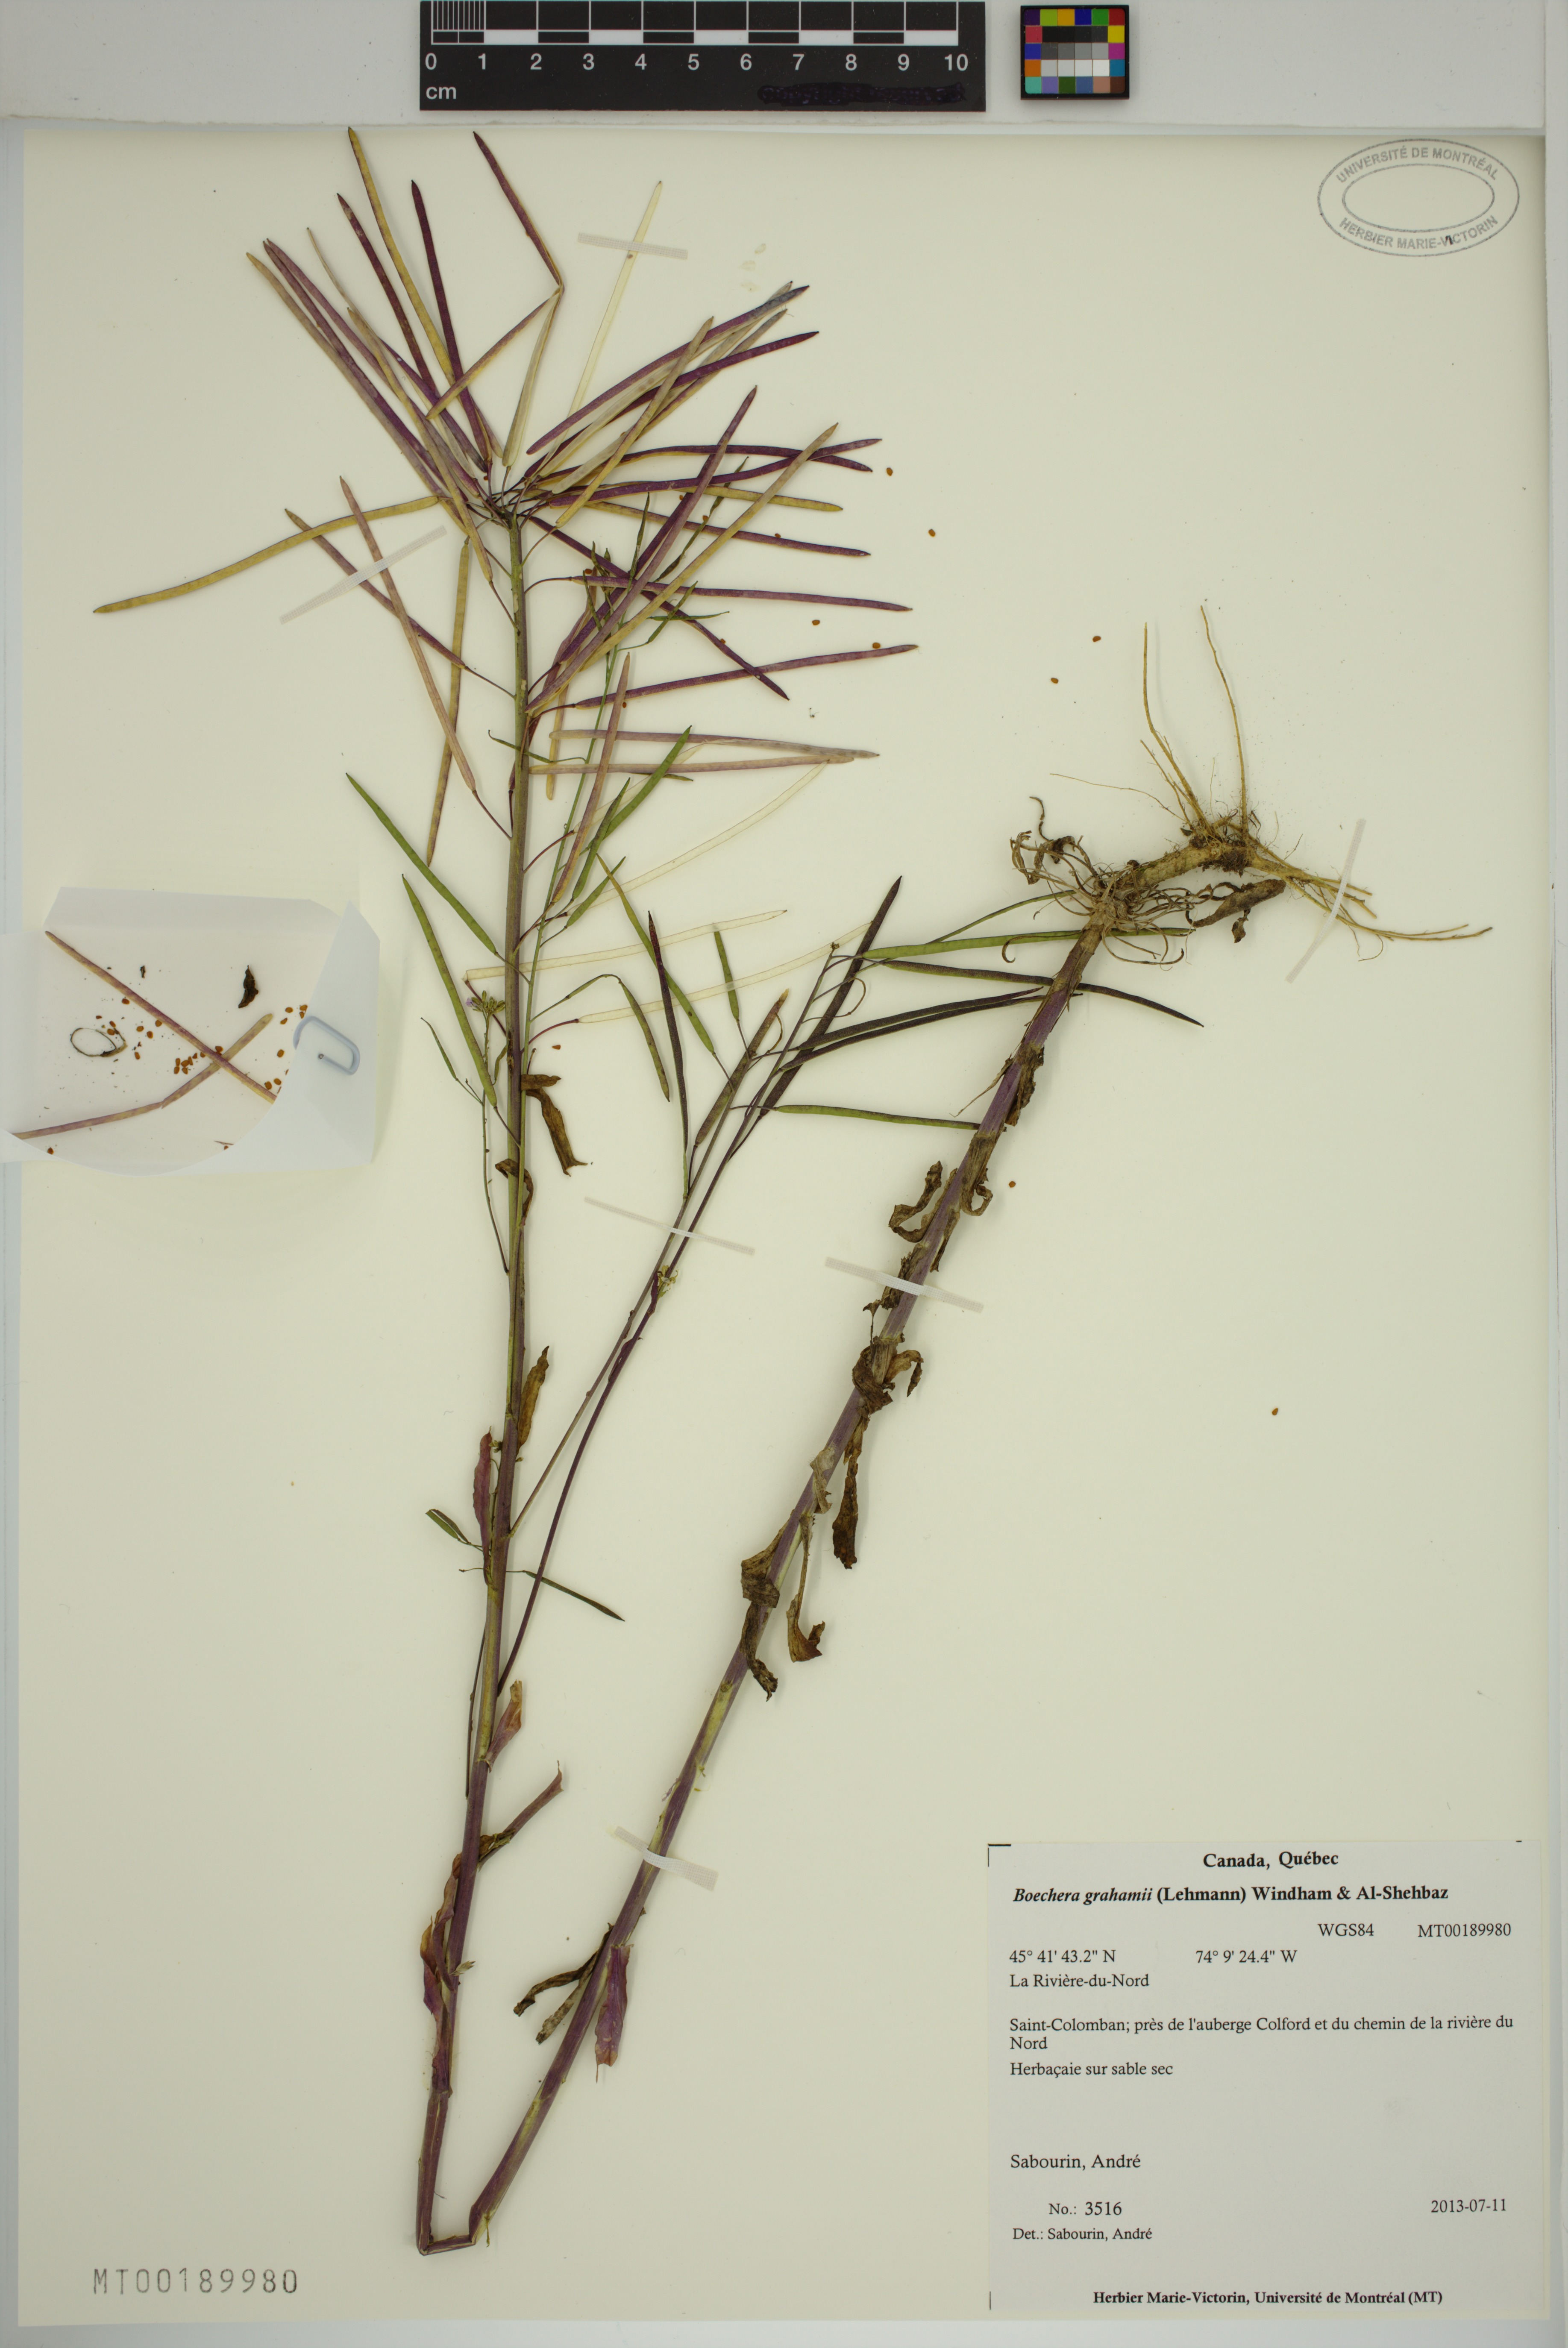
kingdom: Plantae
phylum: Tracheophyta
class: Magnoliopsida
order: Brassicales
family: Brassicaceae
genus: Boechera
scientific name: Boechera grahamii
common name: Graham's rockcress
